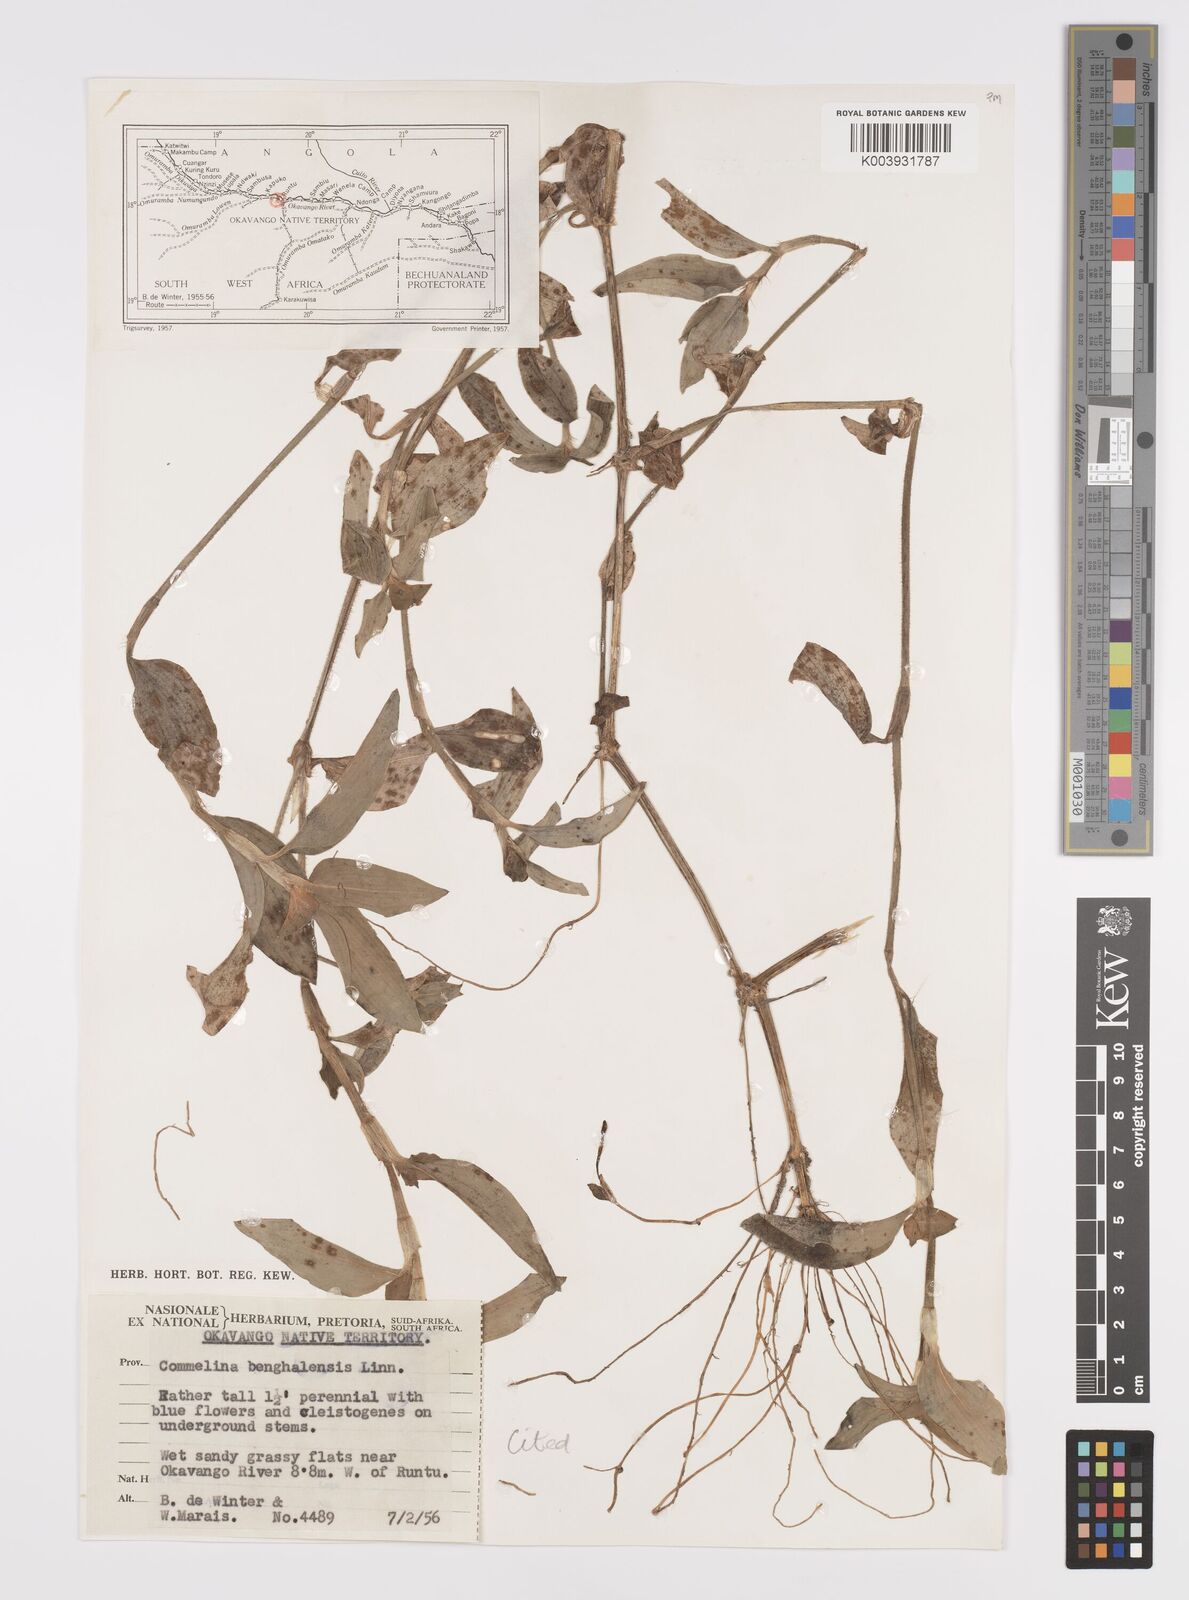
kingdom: Plantae
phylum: Tracheophyta
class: Liliopsida
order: Commelinales
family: Commelinaceae
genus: Commelina
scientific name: Commelina benghalensis
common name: Jio
